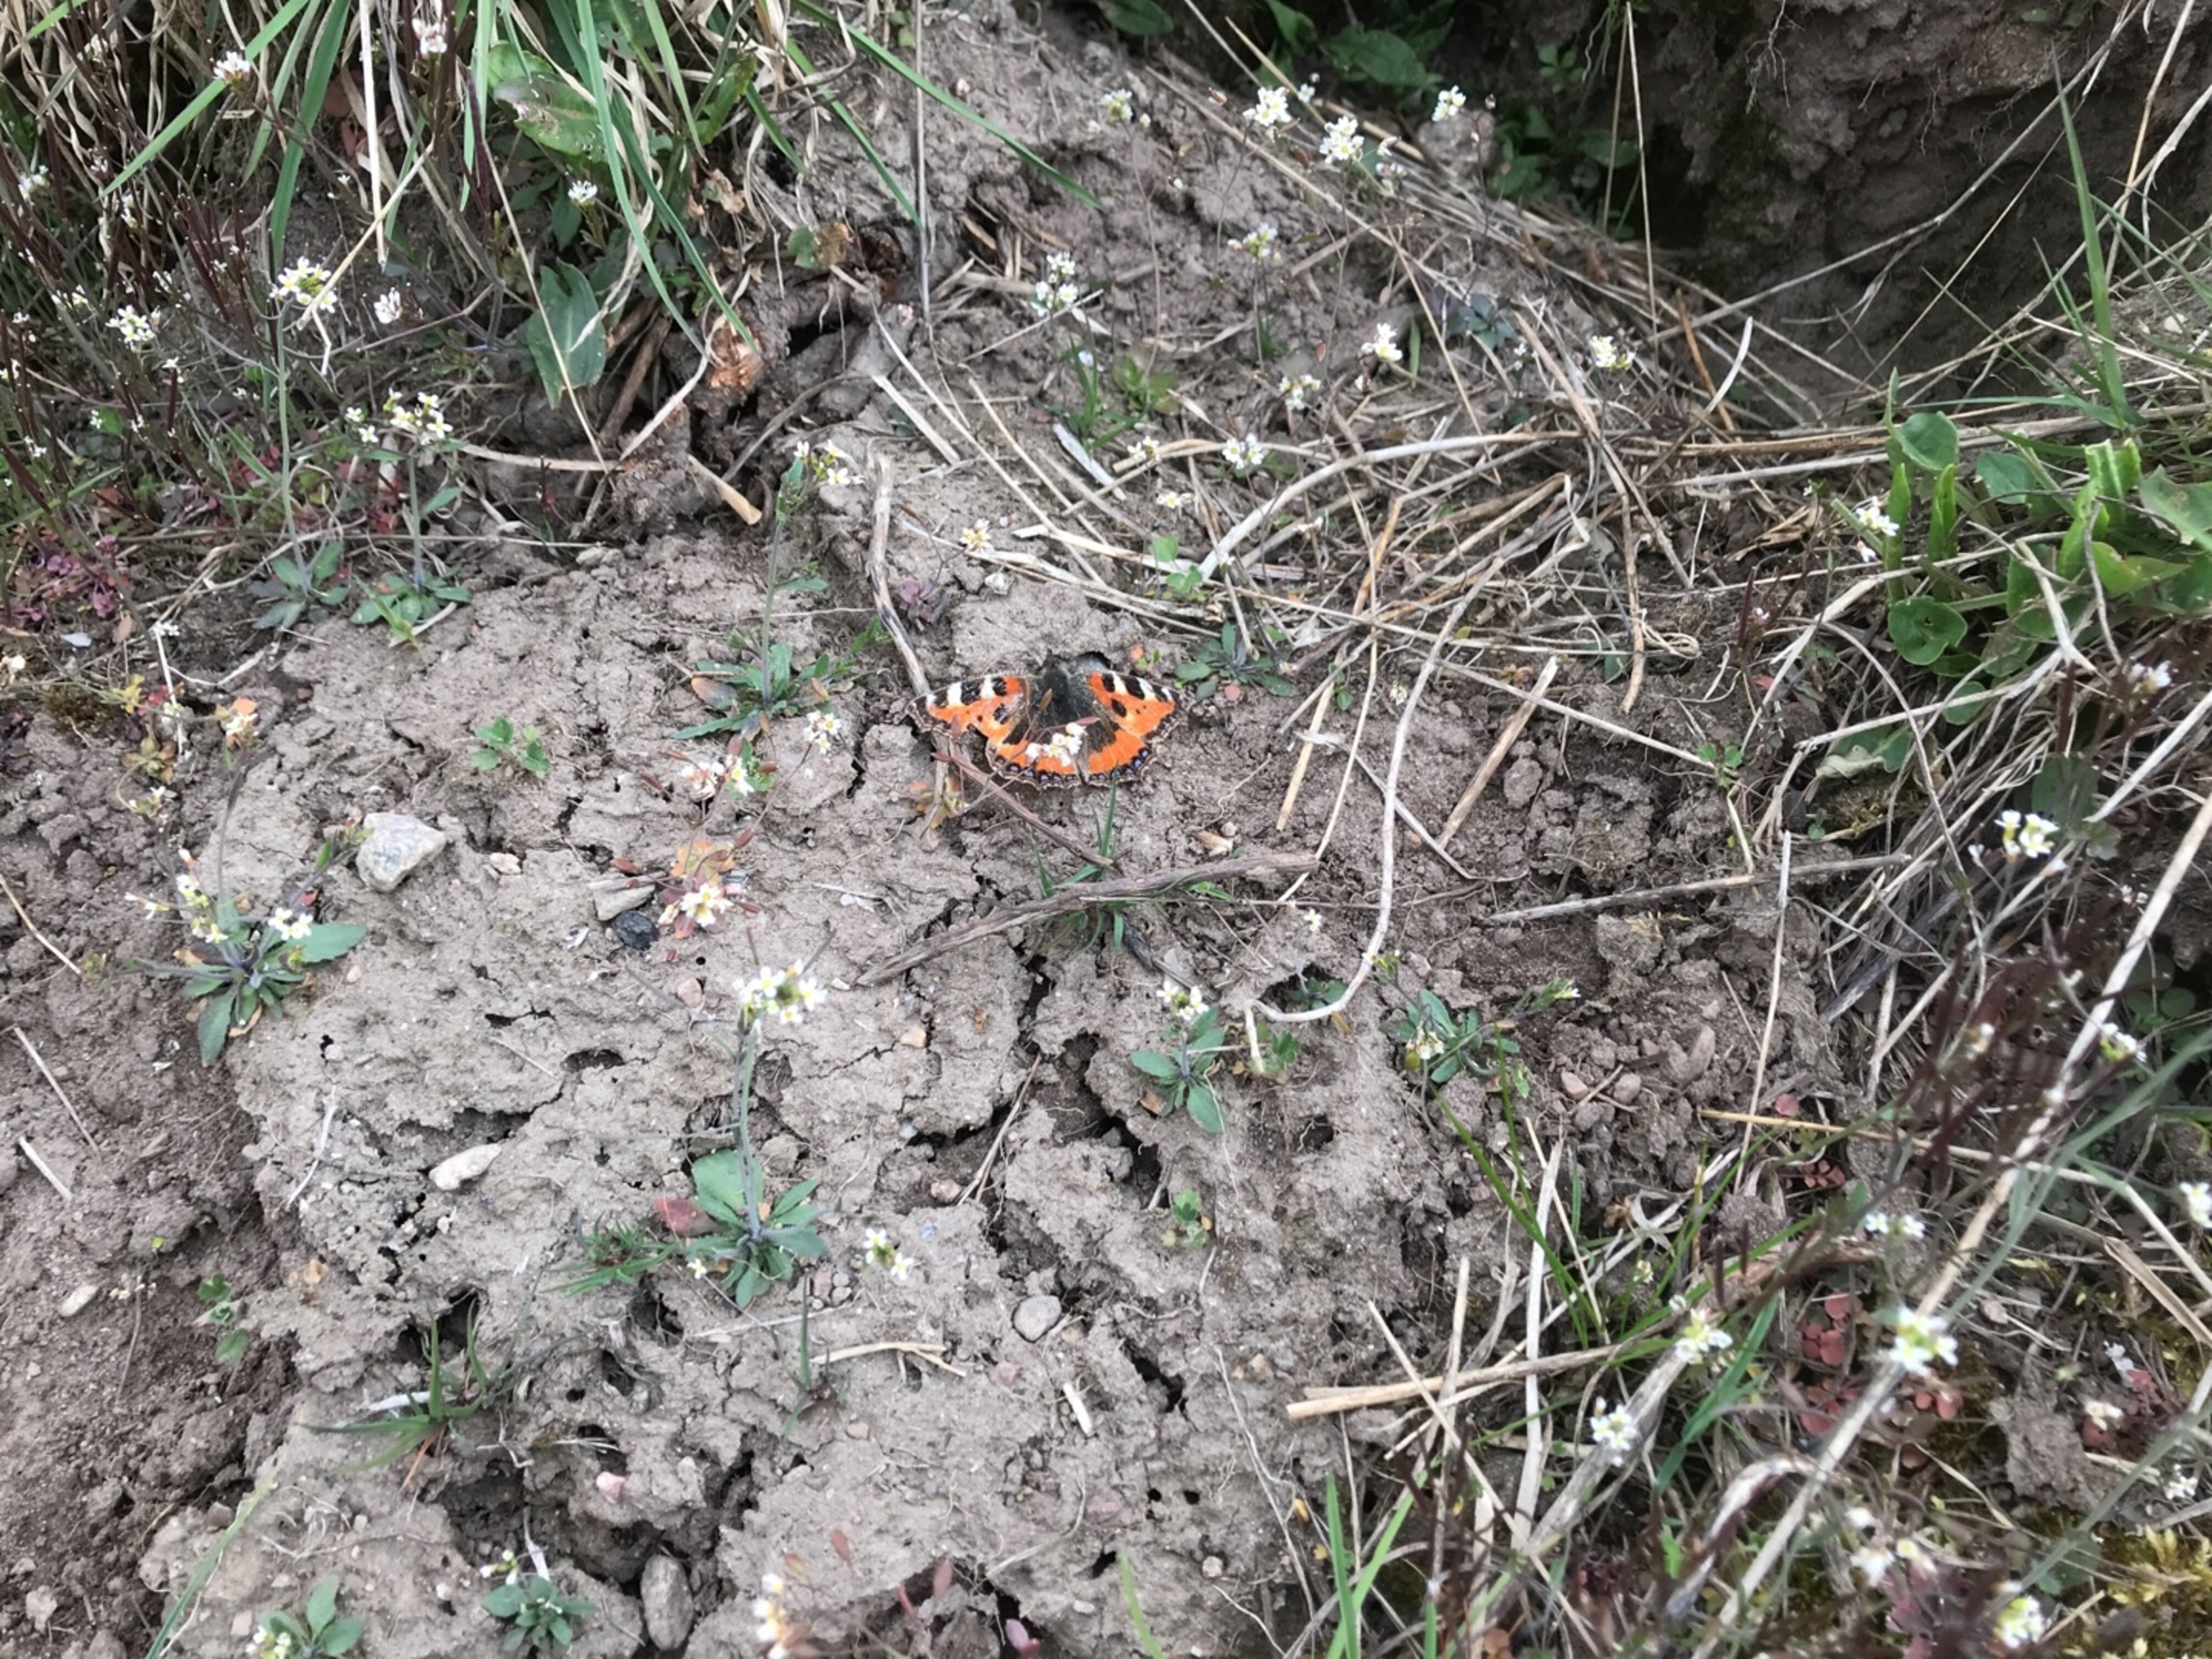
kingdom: Animalia
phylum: Arthropoda
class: Insecta
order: Lepidoptera
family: Nymphalidae
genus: Aglais
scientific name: Aglais urticae
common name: Nældens takvinge
